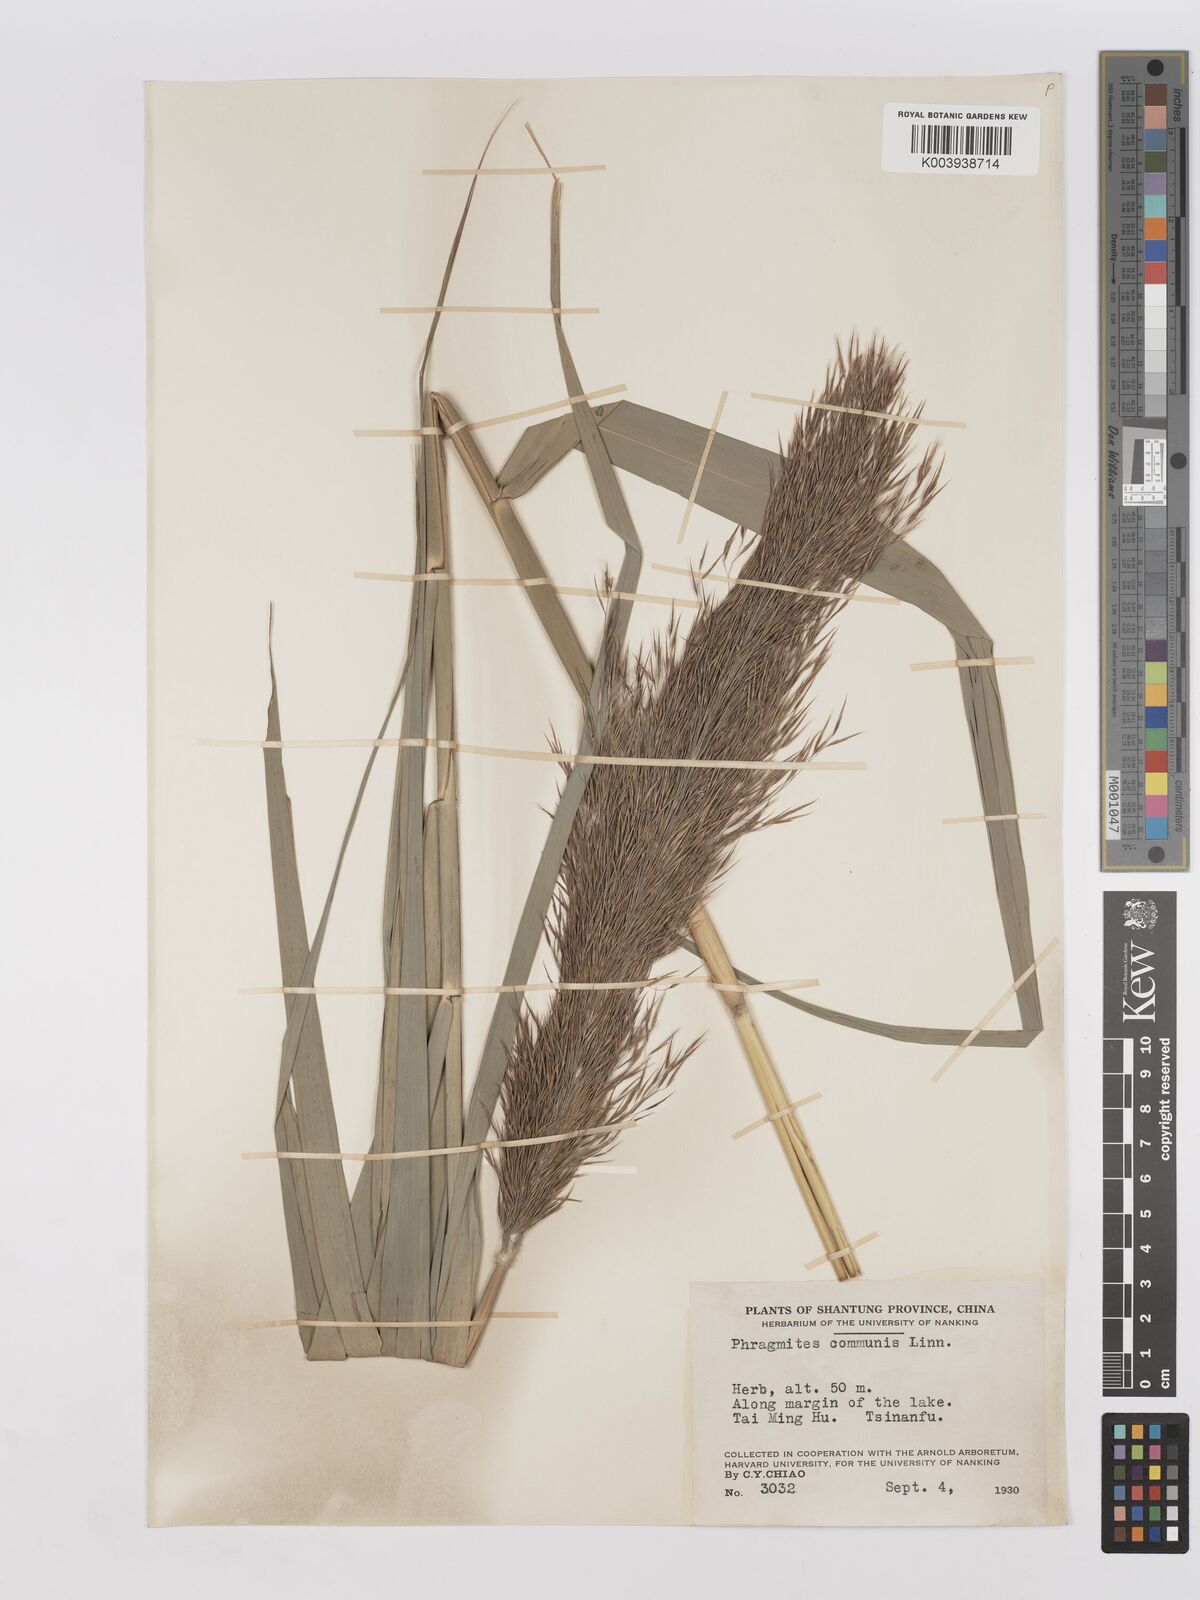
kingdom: Plantae
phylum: Tracheophyta
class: Liliopsida
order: Poales
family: Poaceae
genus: Phragmites
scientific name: Phragmites australis
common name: Common reed
